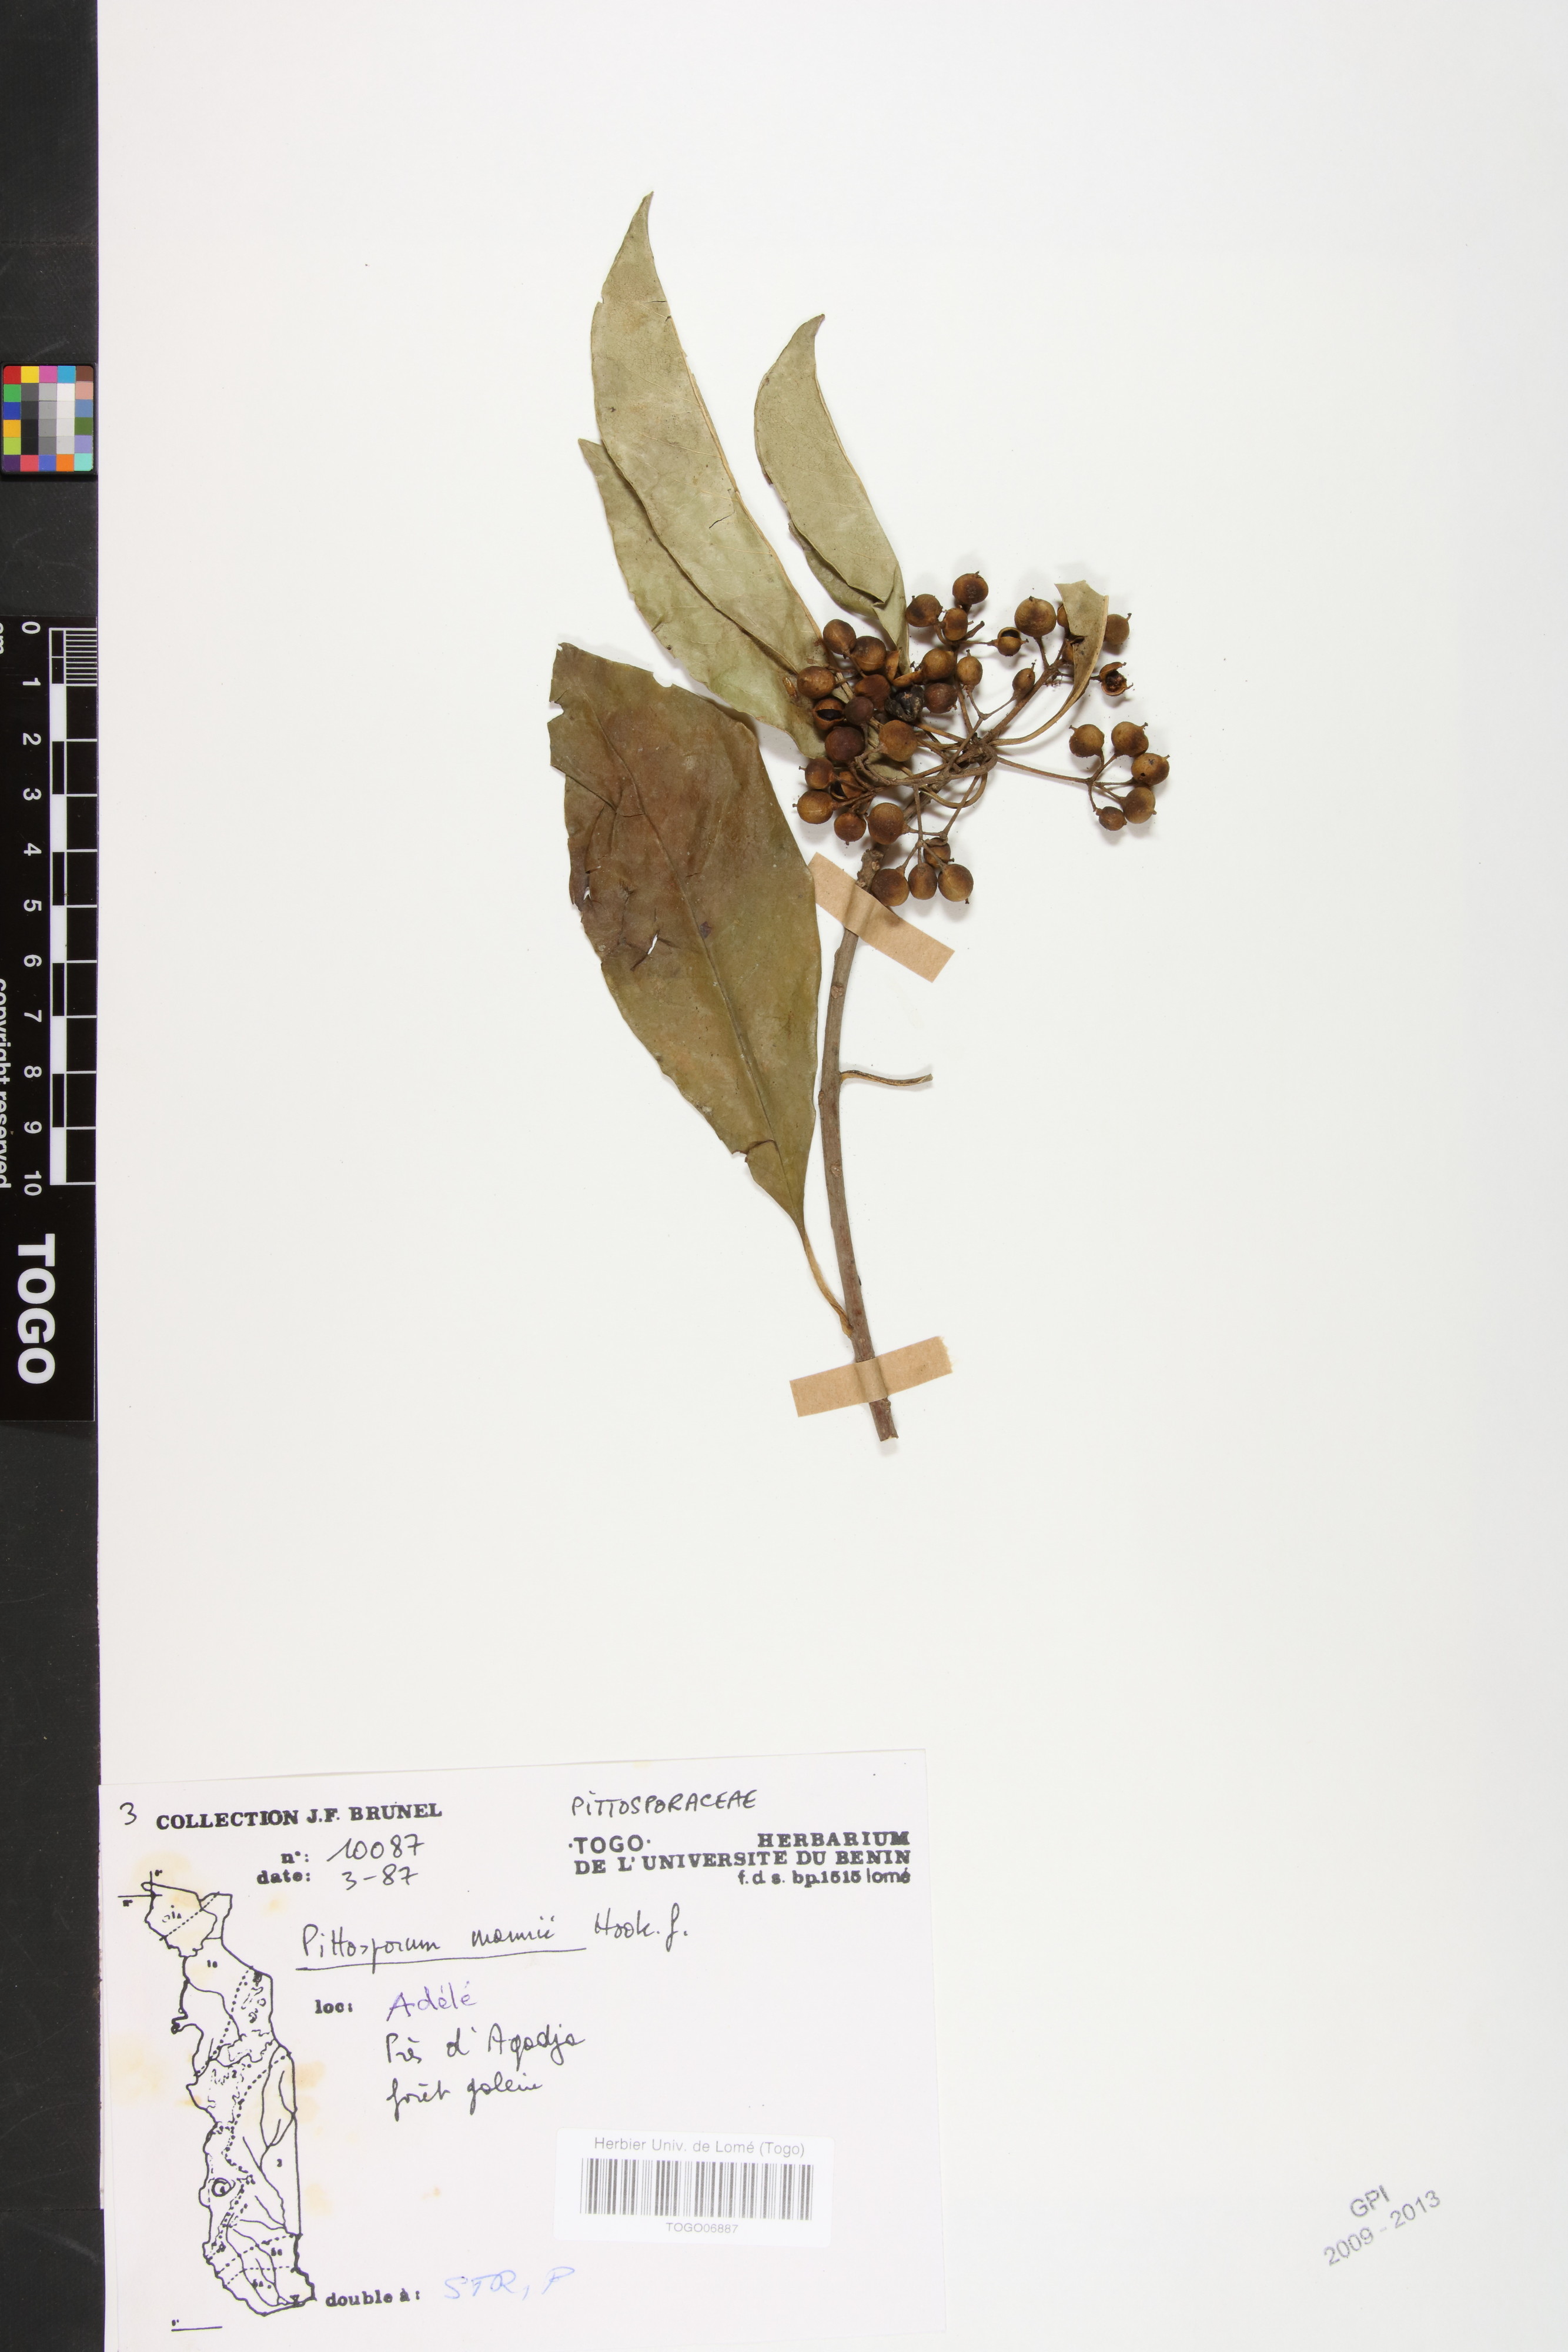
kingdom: Plantae
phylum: Tracheophyta
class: Magnoliopsida
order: Apiales
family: Pittosporaceae
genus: Pittosporum
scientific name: Pittosporum viridiflorum
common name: Cape cheesewood
